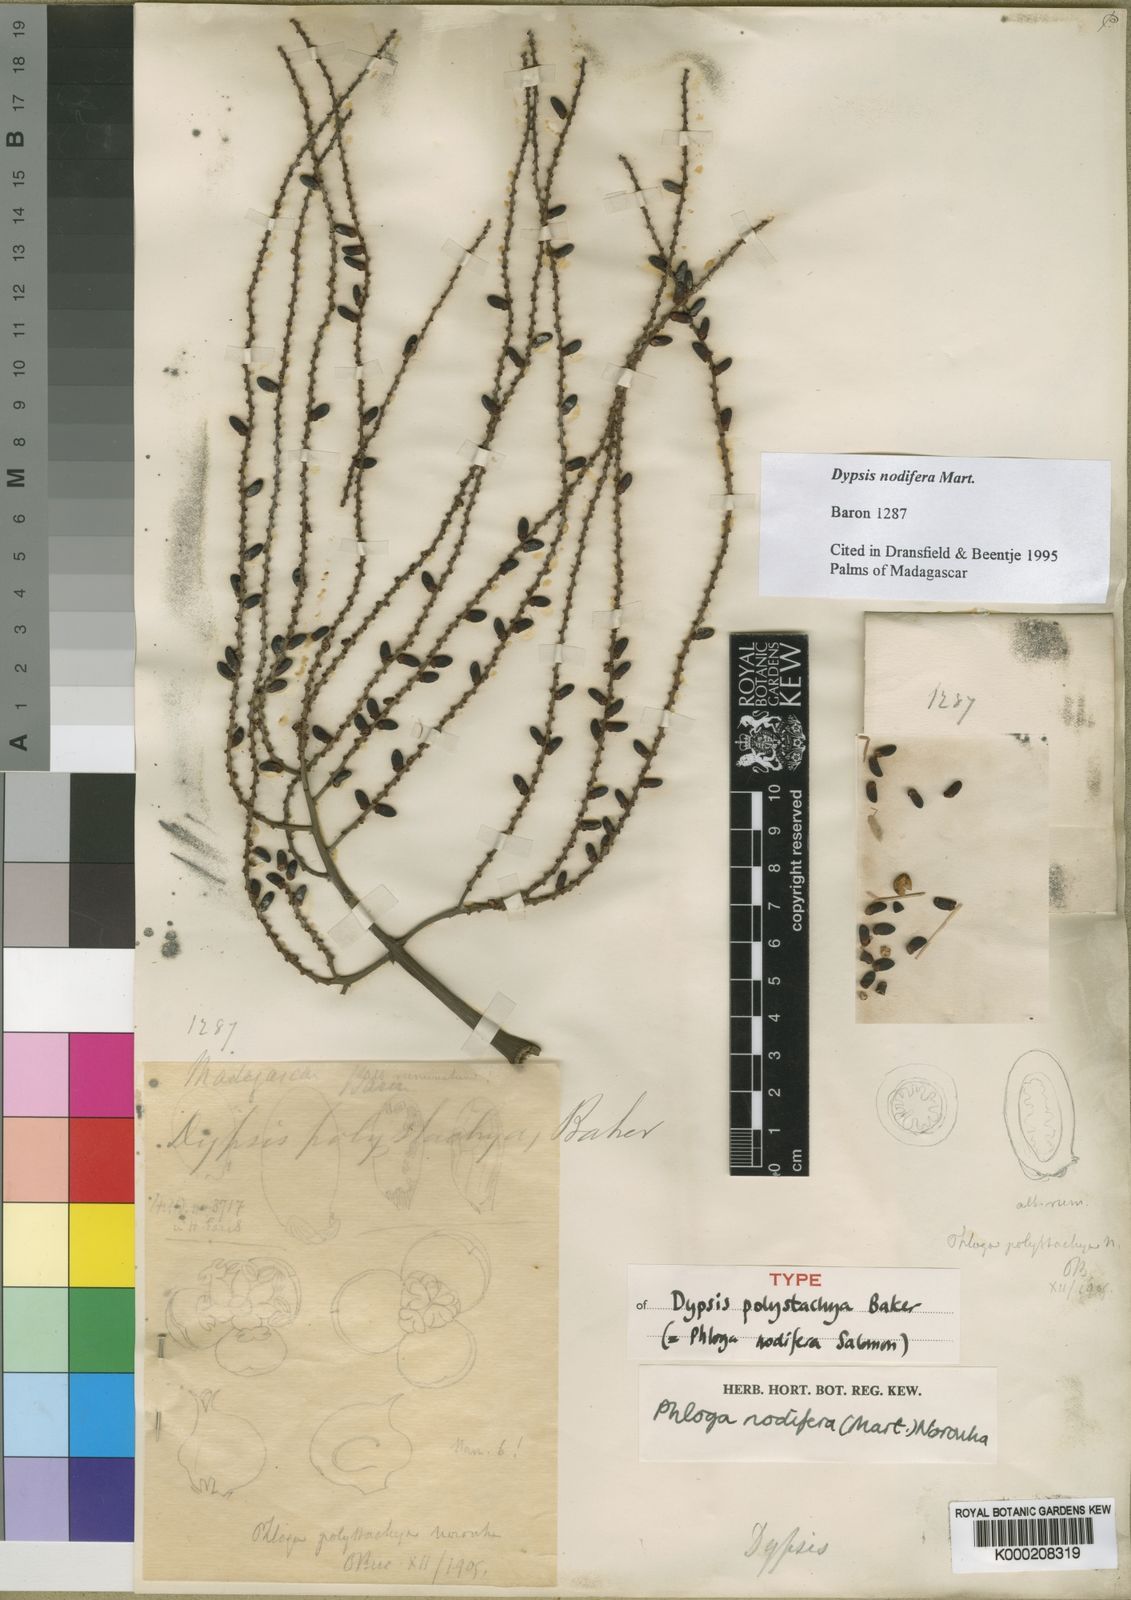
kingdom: Plantae
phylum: Tracheophyta
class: Liliopsida
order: Arecales
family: Arecaceae
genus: Dypsis
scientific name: Dypsis nodifera
